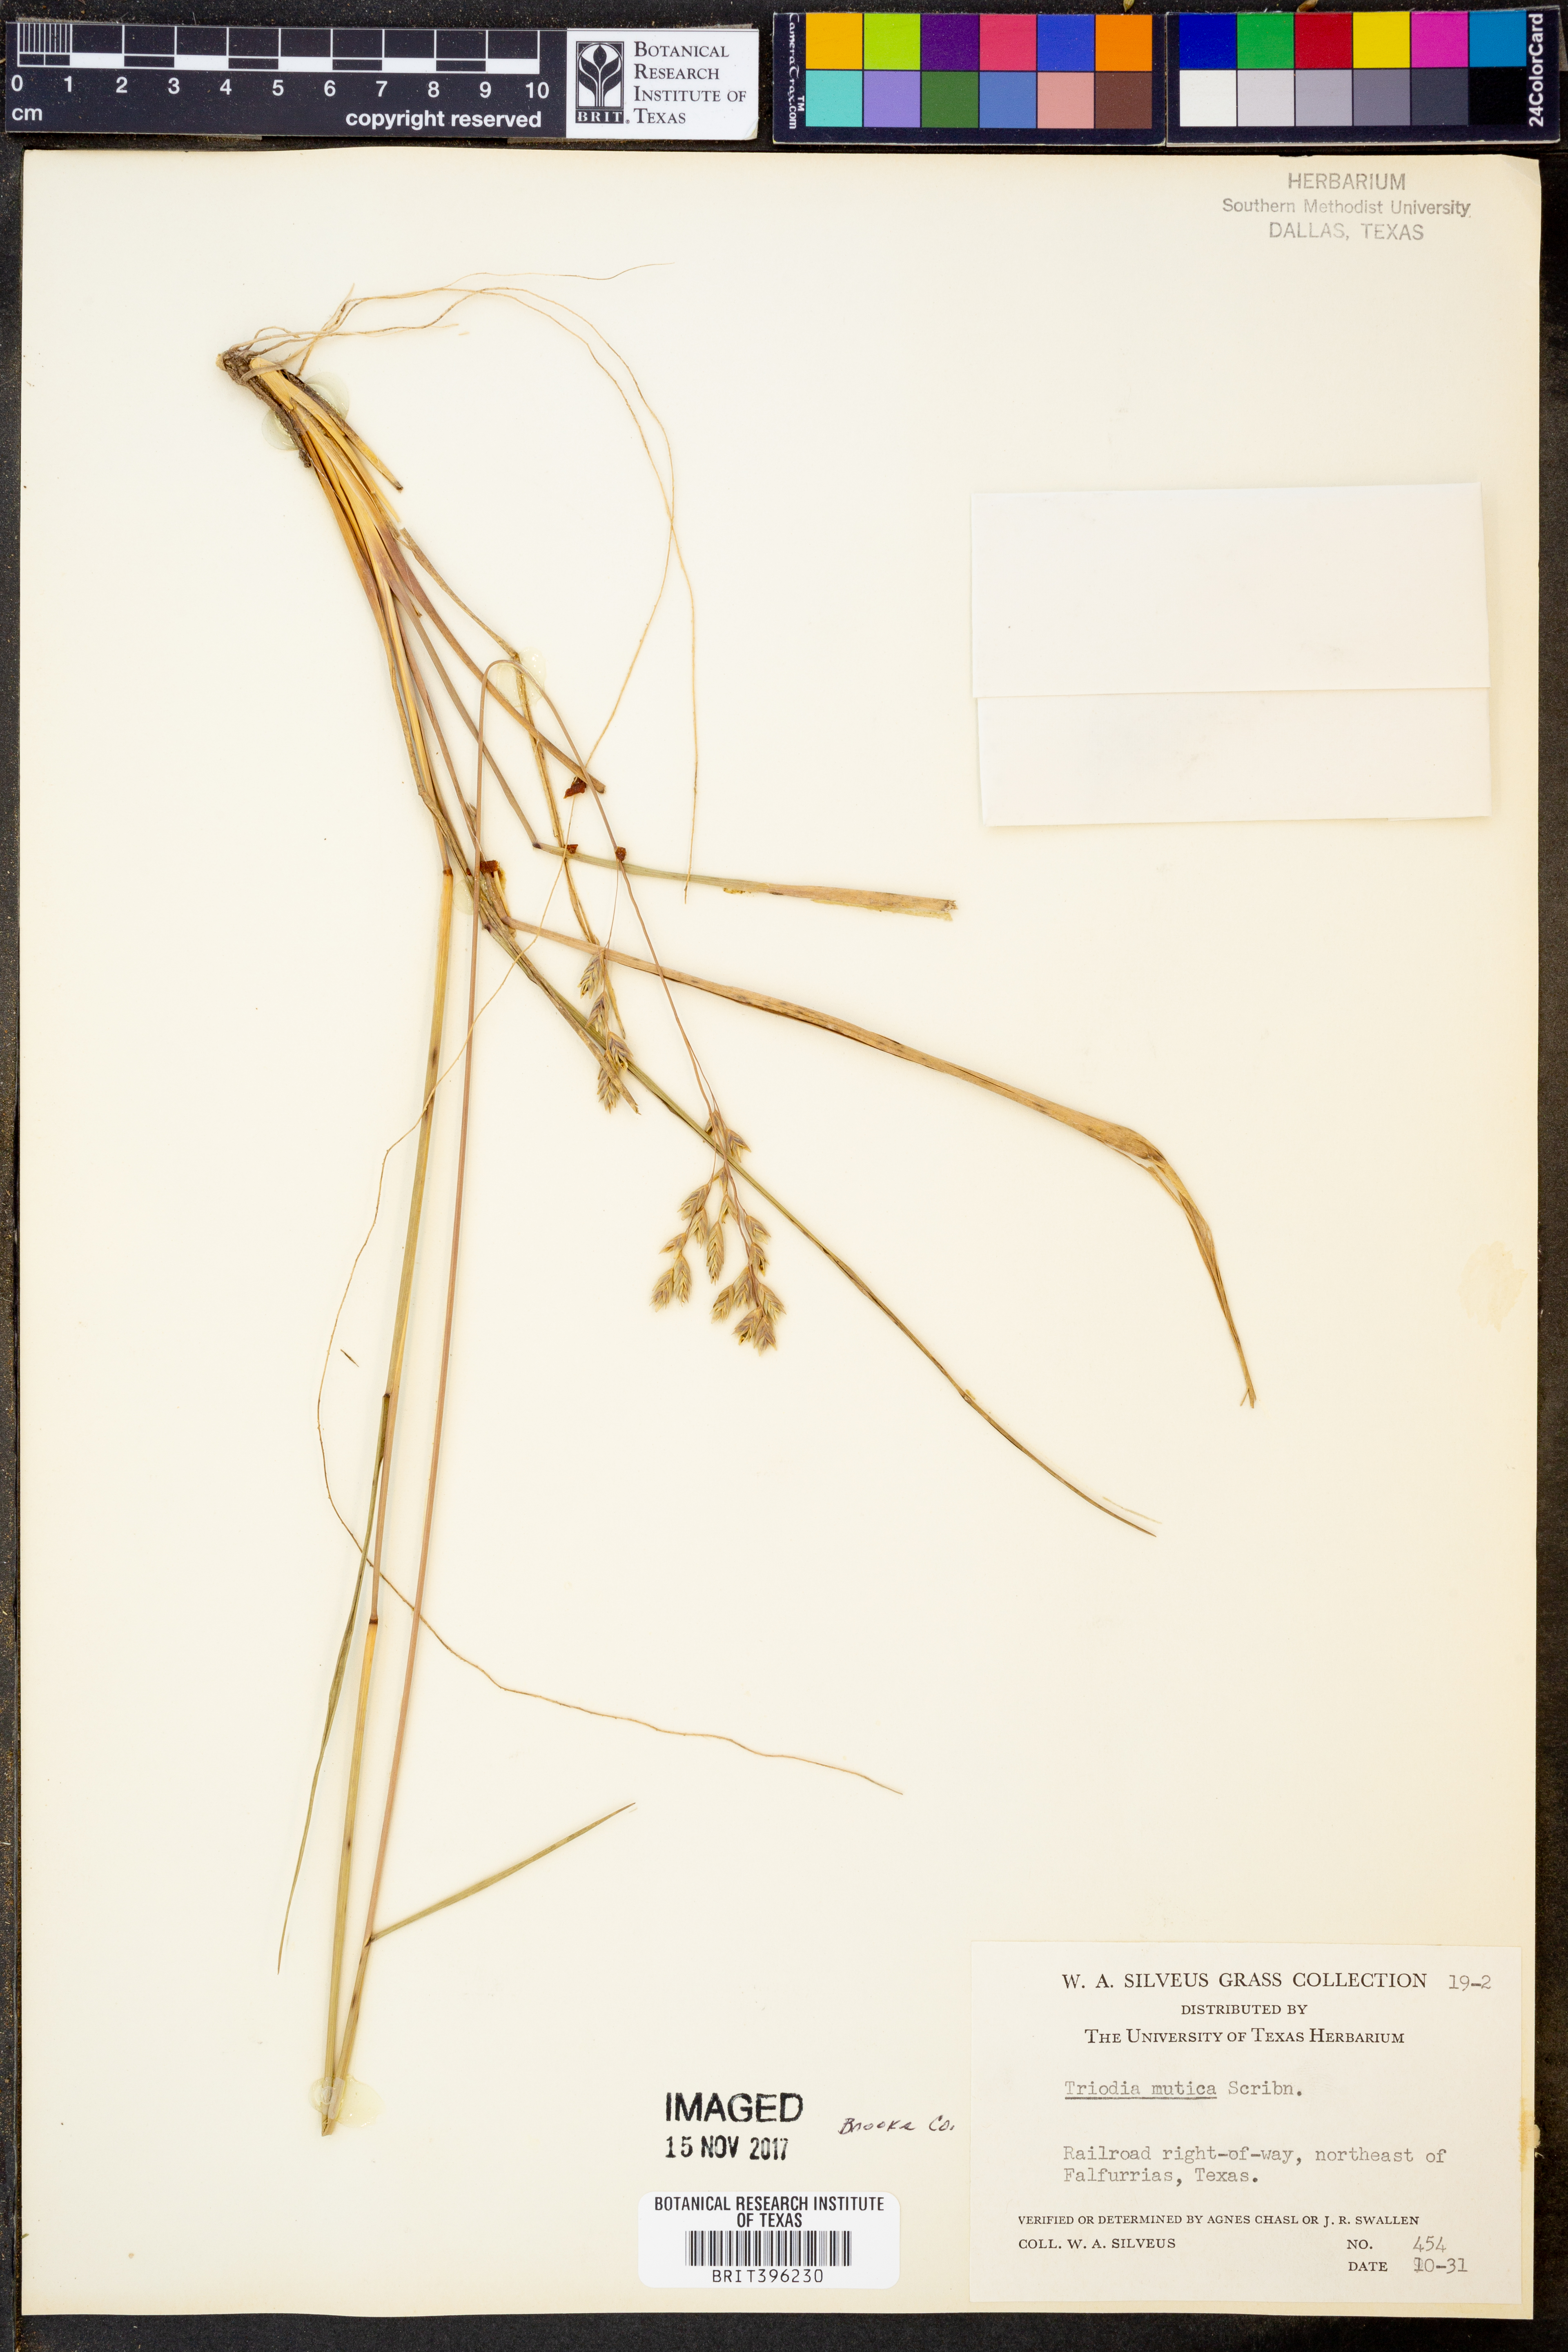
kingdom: Plantae
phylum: Tracheophyta
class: Liliopsida
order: Poales
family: Poaceae
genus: Tridentopsis
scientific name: Tridentopsis mutica
